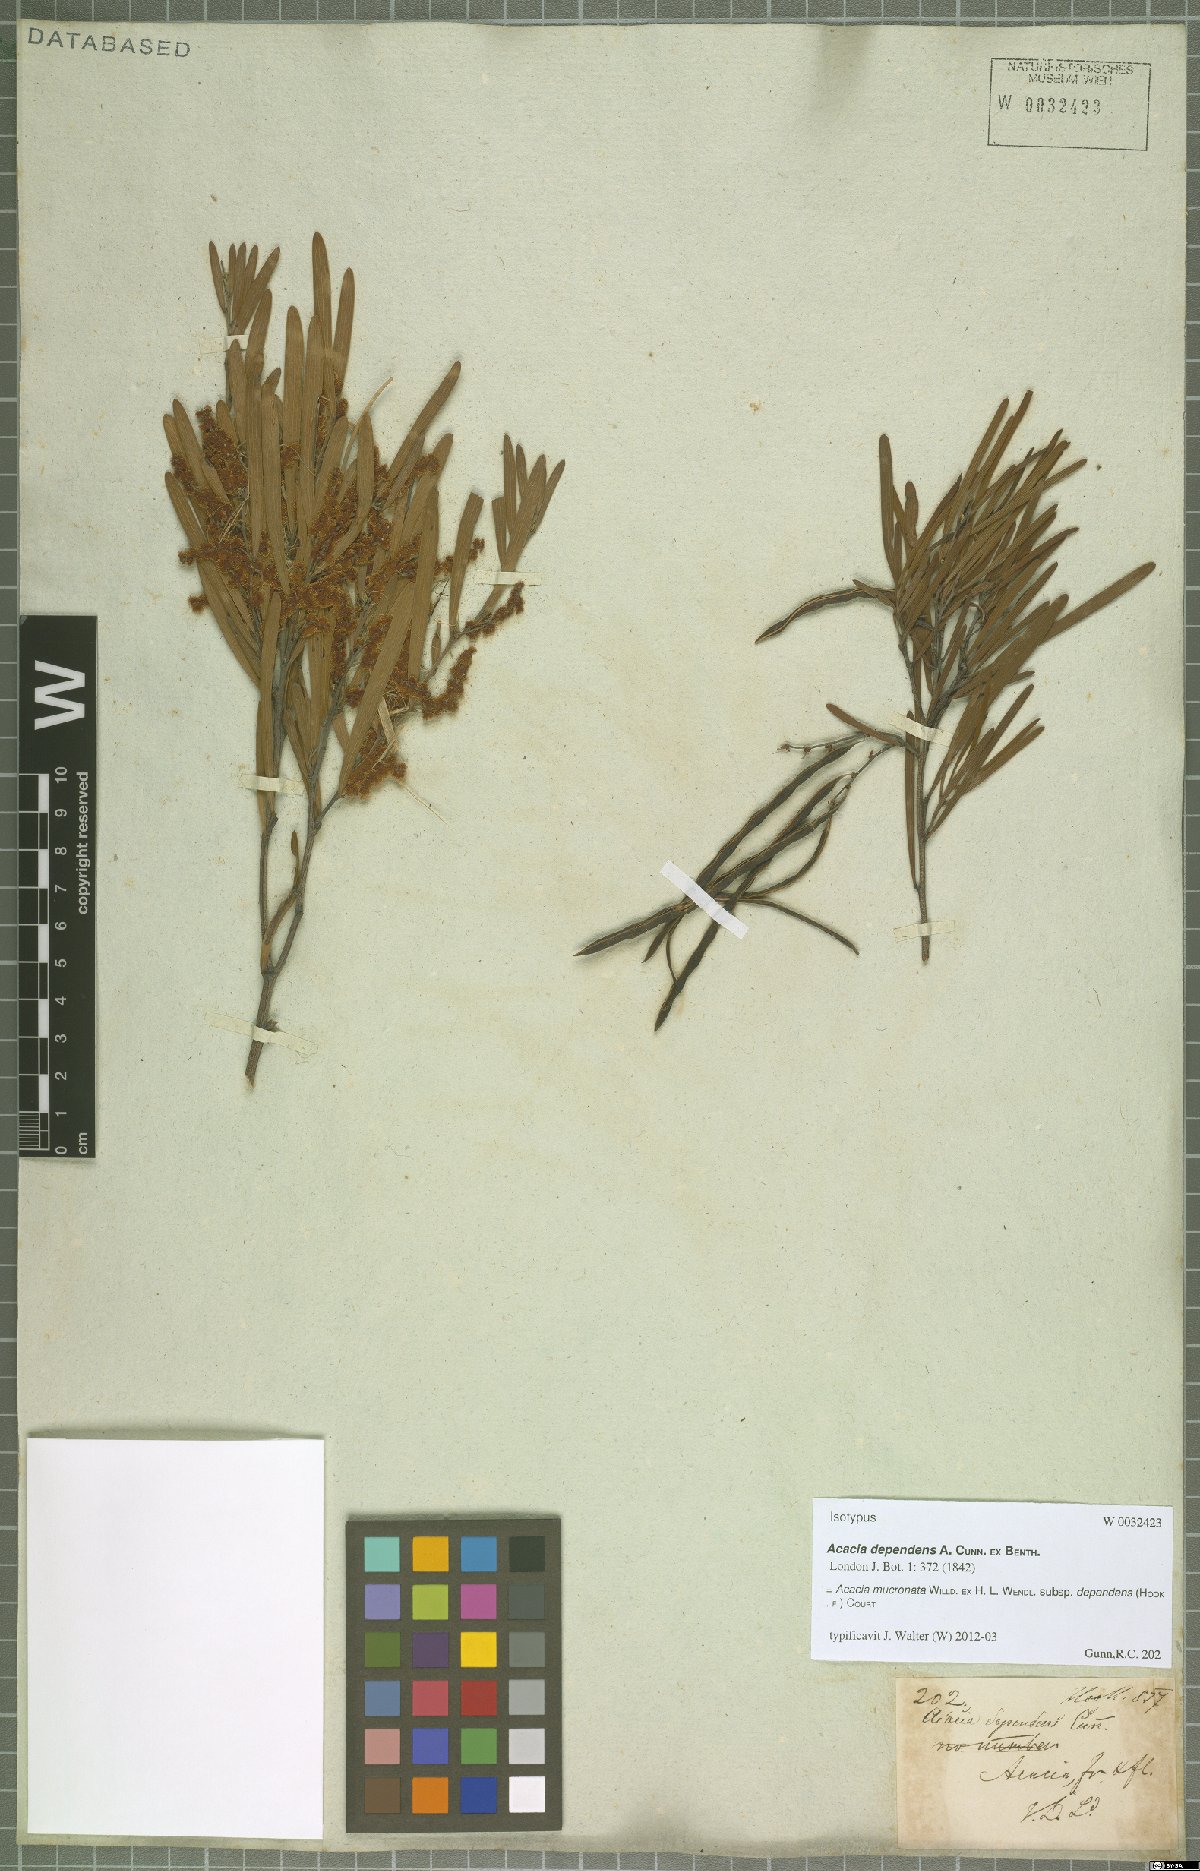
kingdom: Plantae
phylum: Tracheophyta
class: Magnoliopsida
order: Fabales
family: Fabaceae
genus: Acacia
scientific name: Acacia mucronata
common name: Variable sallow wattle
